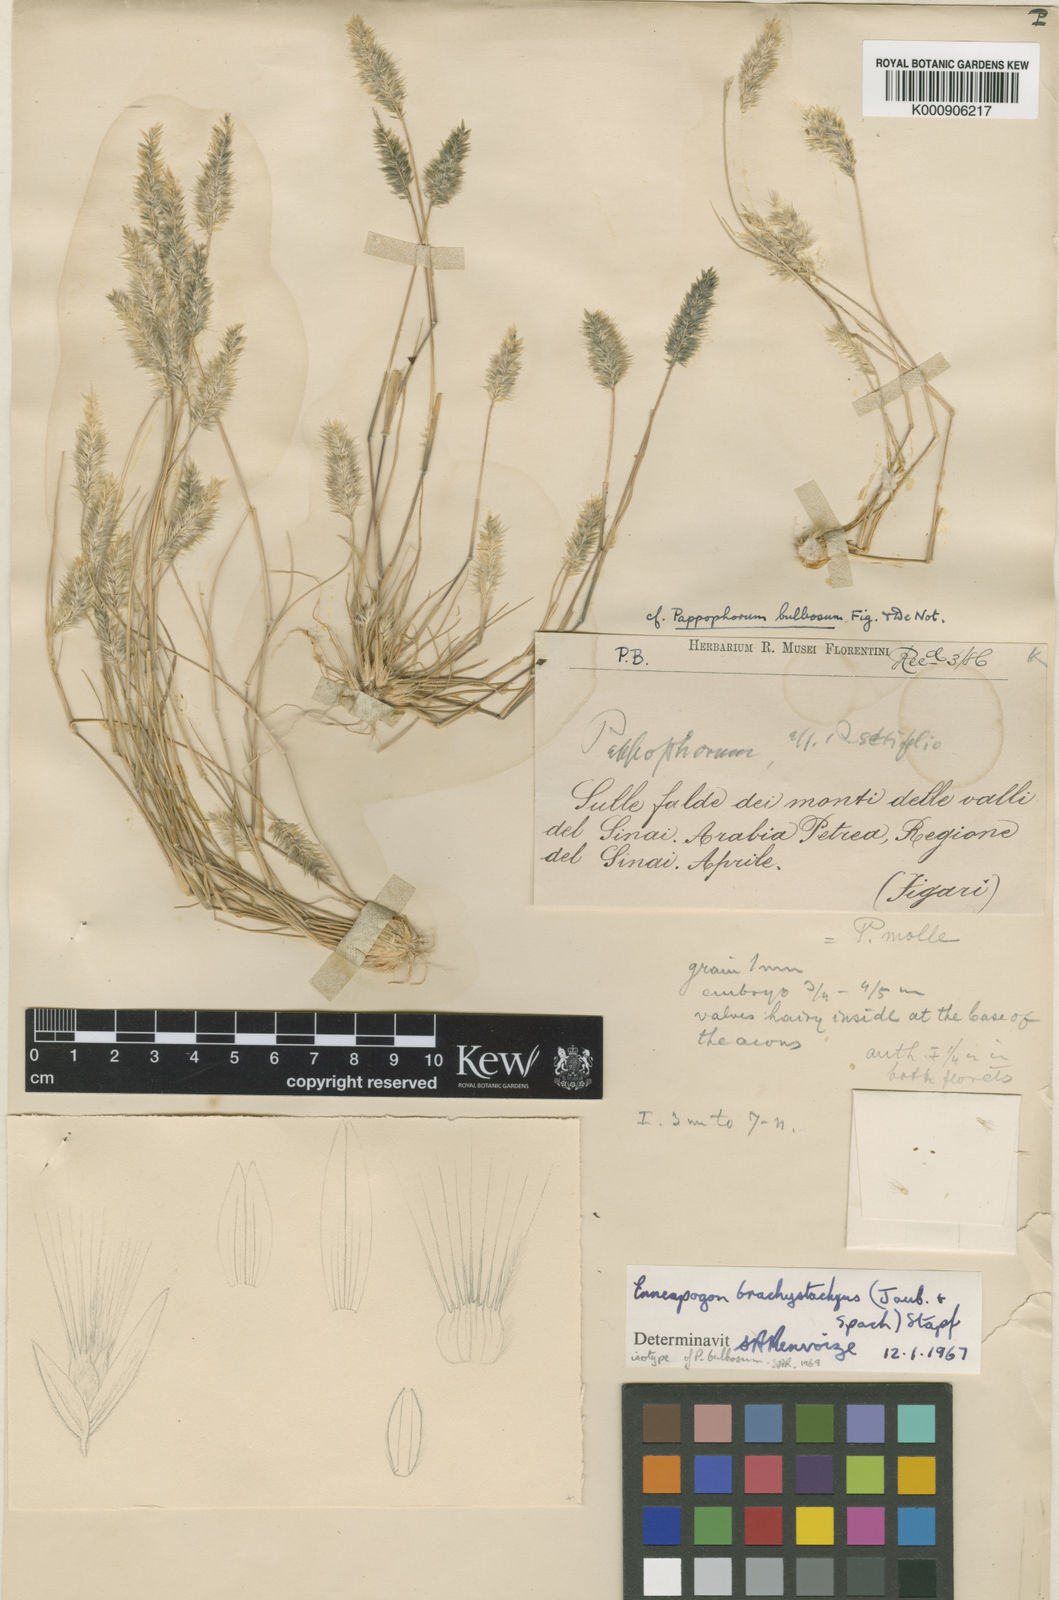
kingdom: Plantae
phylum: Tracheophyta
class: Liliopsida
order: Poales
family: Poaceae
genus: Enneapogon
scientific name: Enneapogon desvauxii
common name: Feather pappus grass
